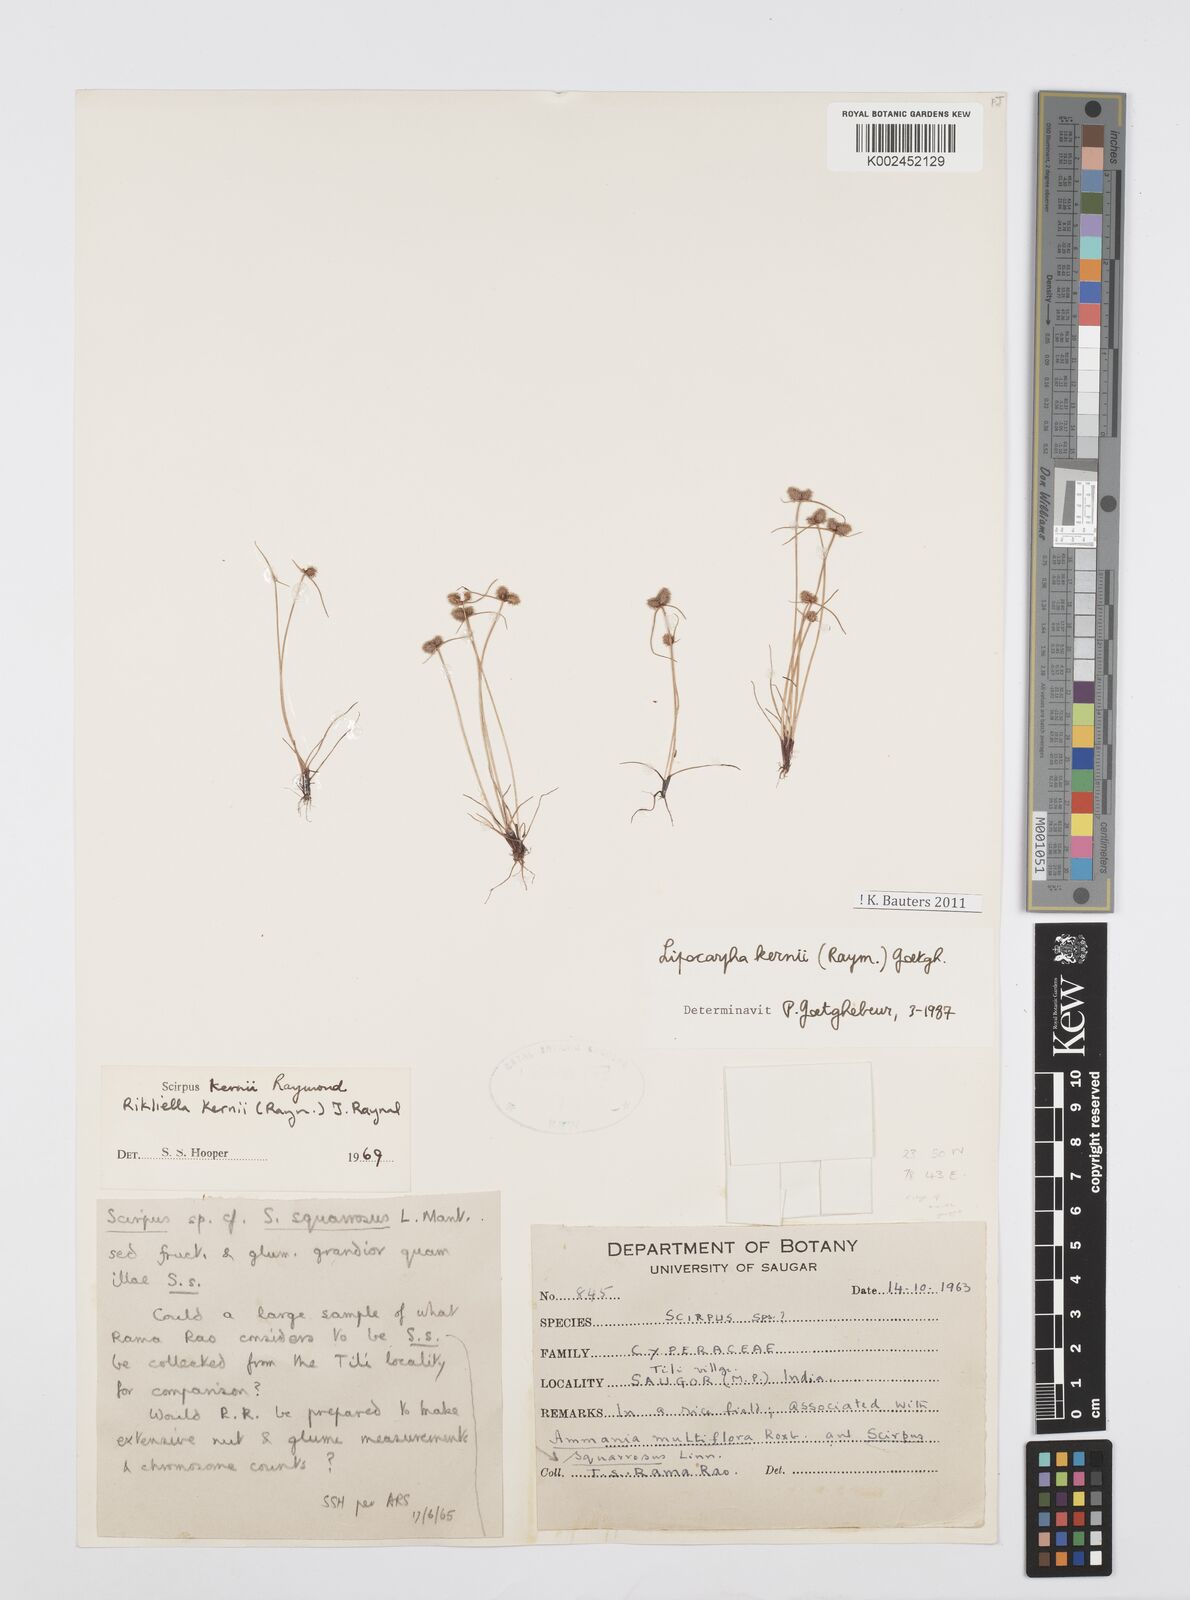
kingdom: Plantae
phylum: Tracheophyta
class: Liliopsida
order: Poales
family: Cyperaceae
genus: Cyperus
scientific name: Cyperus kernii
